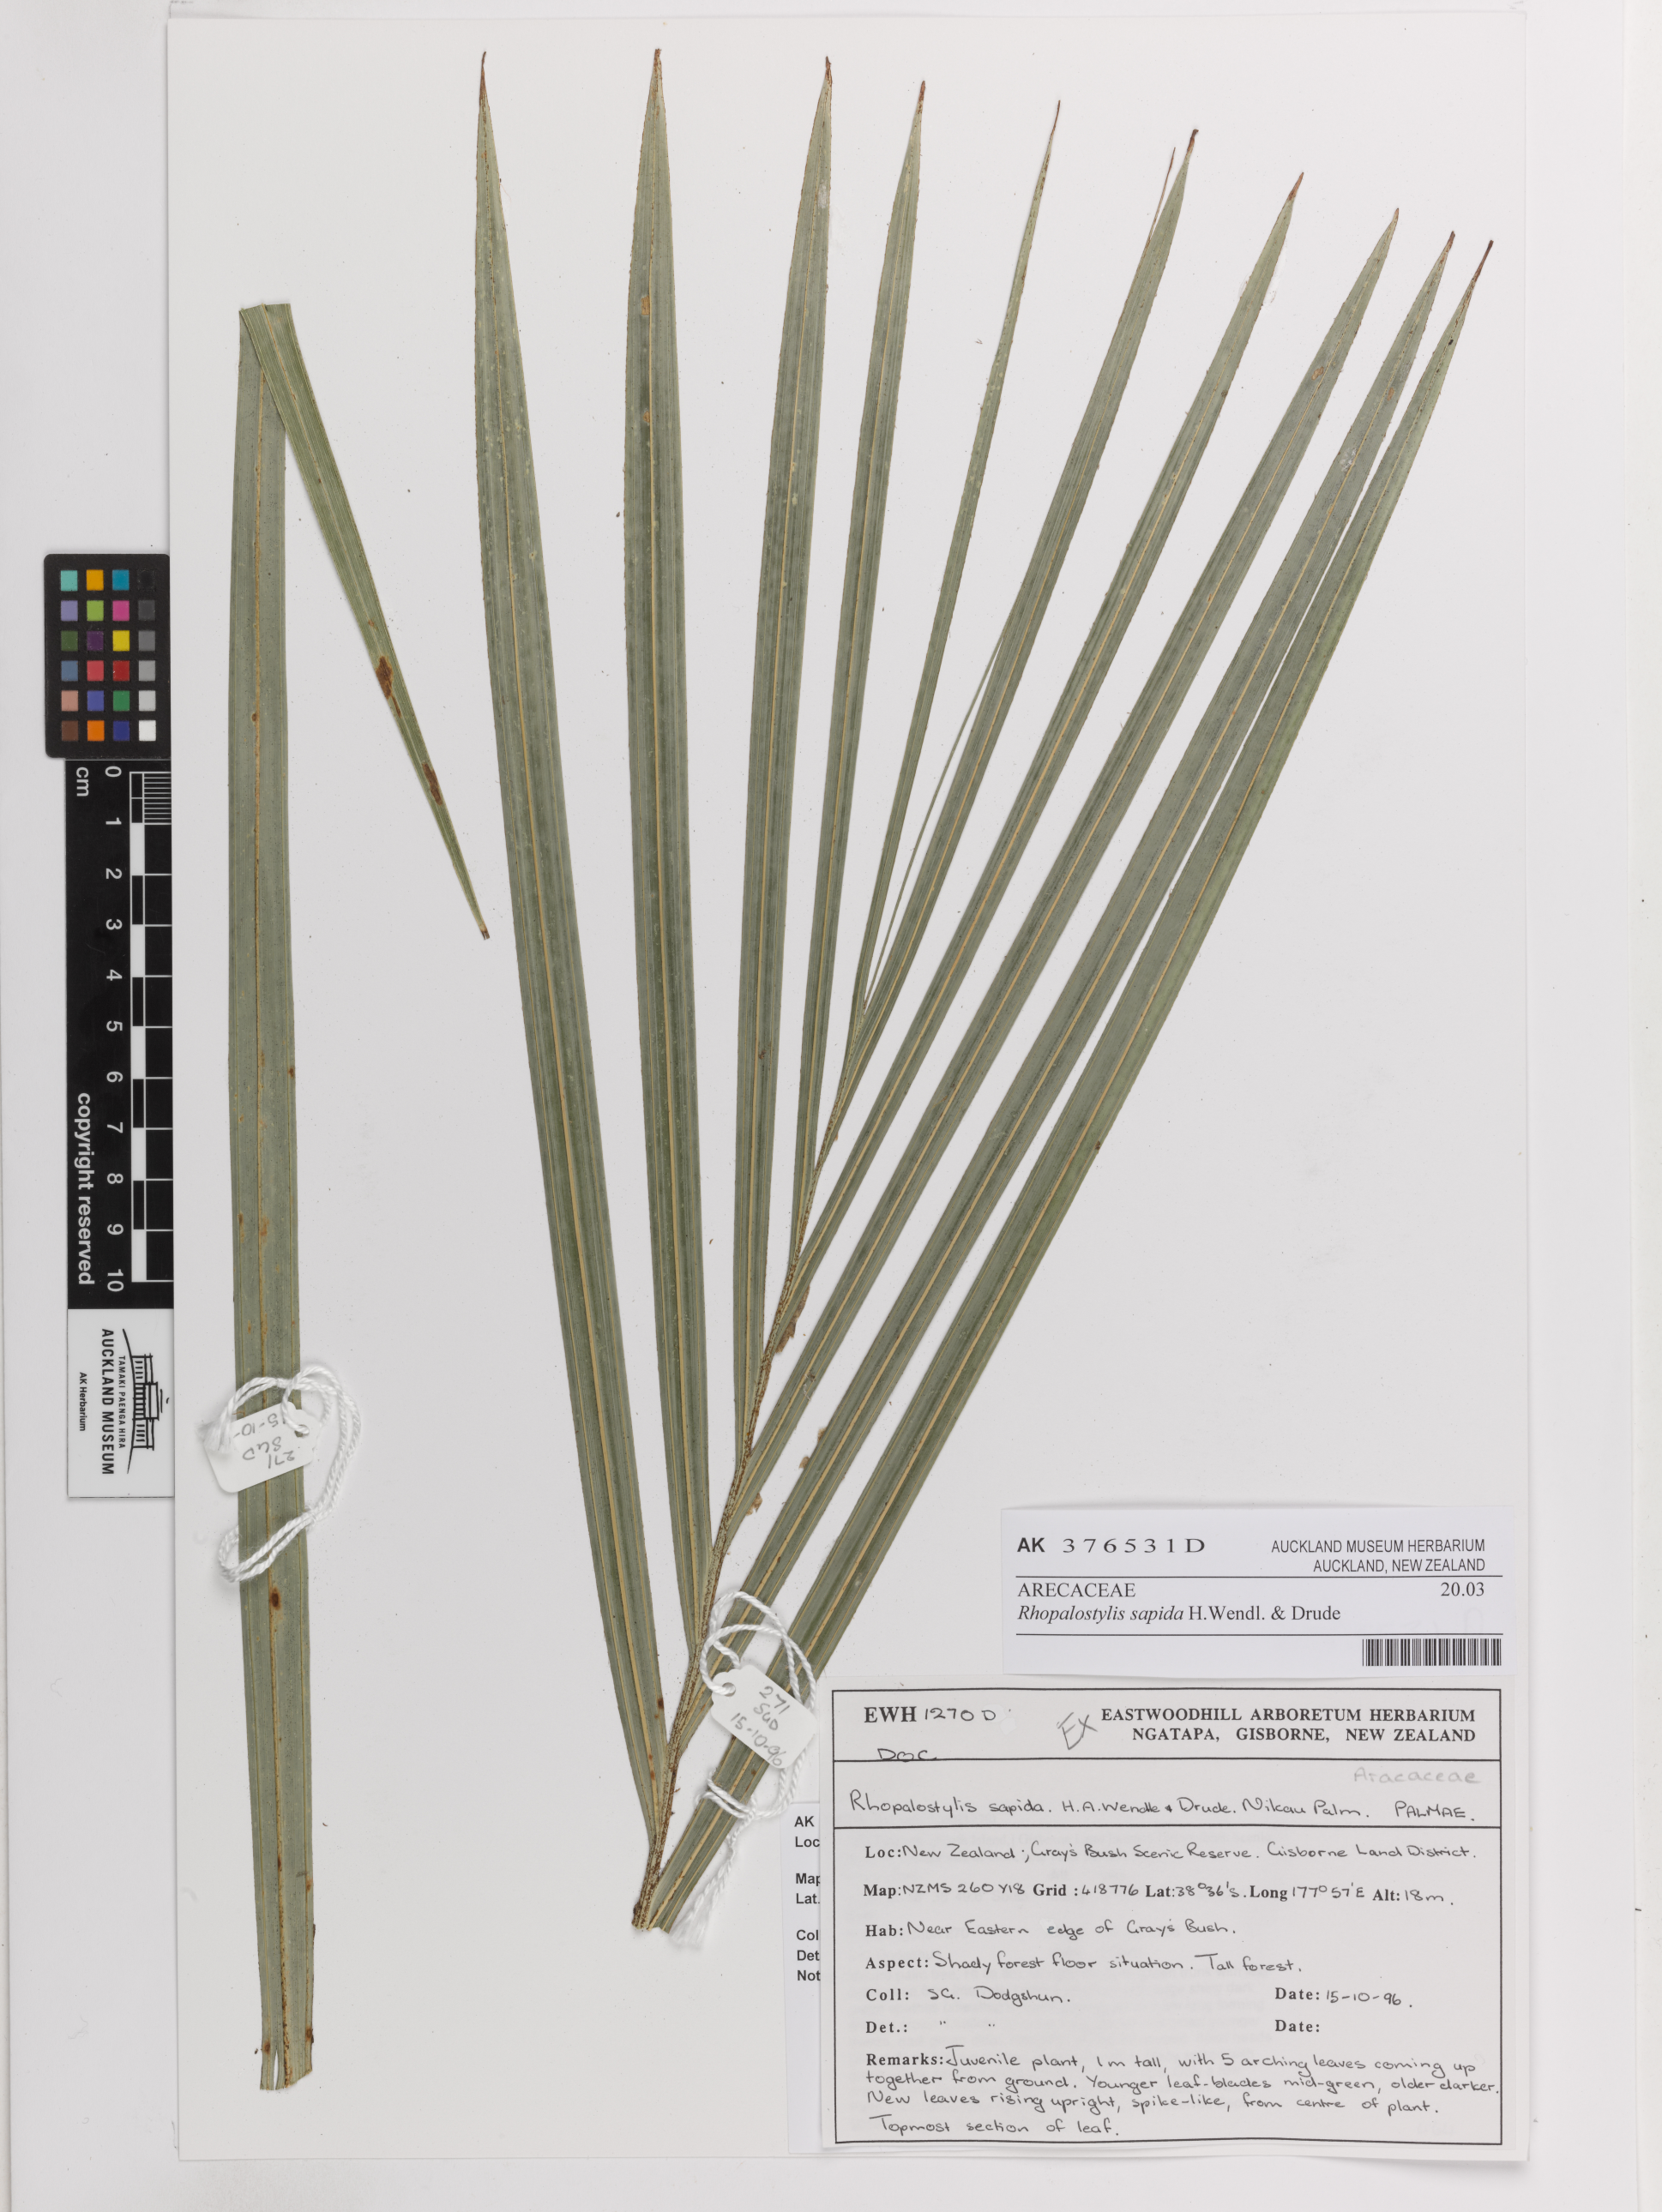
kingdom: Plantae
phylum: Tracheophyta
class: Liliopsida
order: Arecales
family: Arecaceae
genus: Rhopalostylis
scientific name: Rhopalostylis sapida
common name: Feather-duster palm
